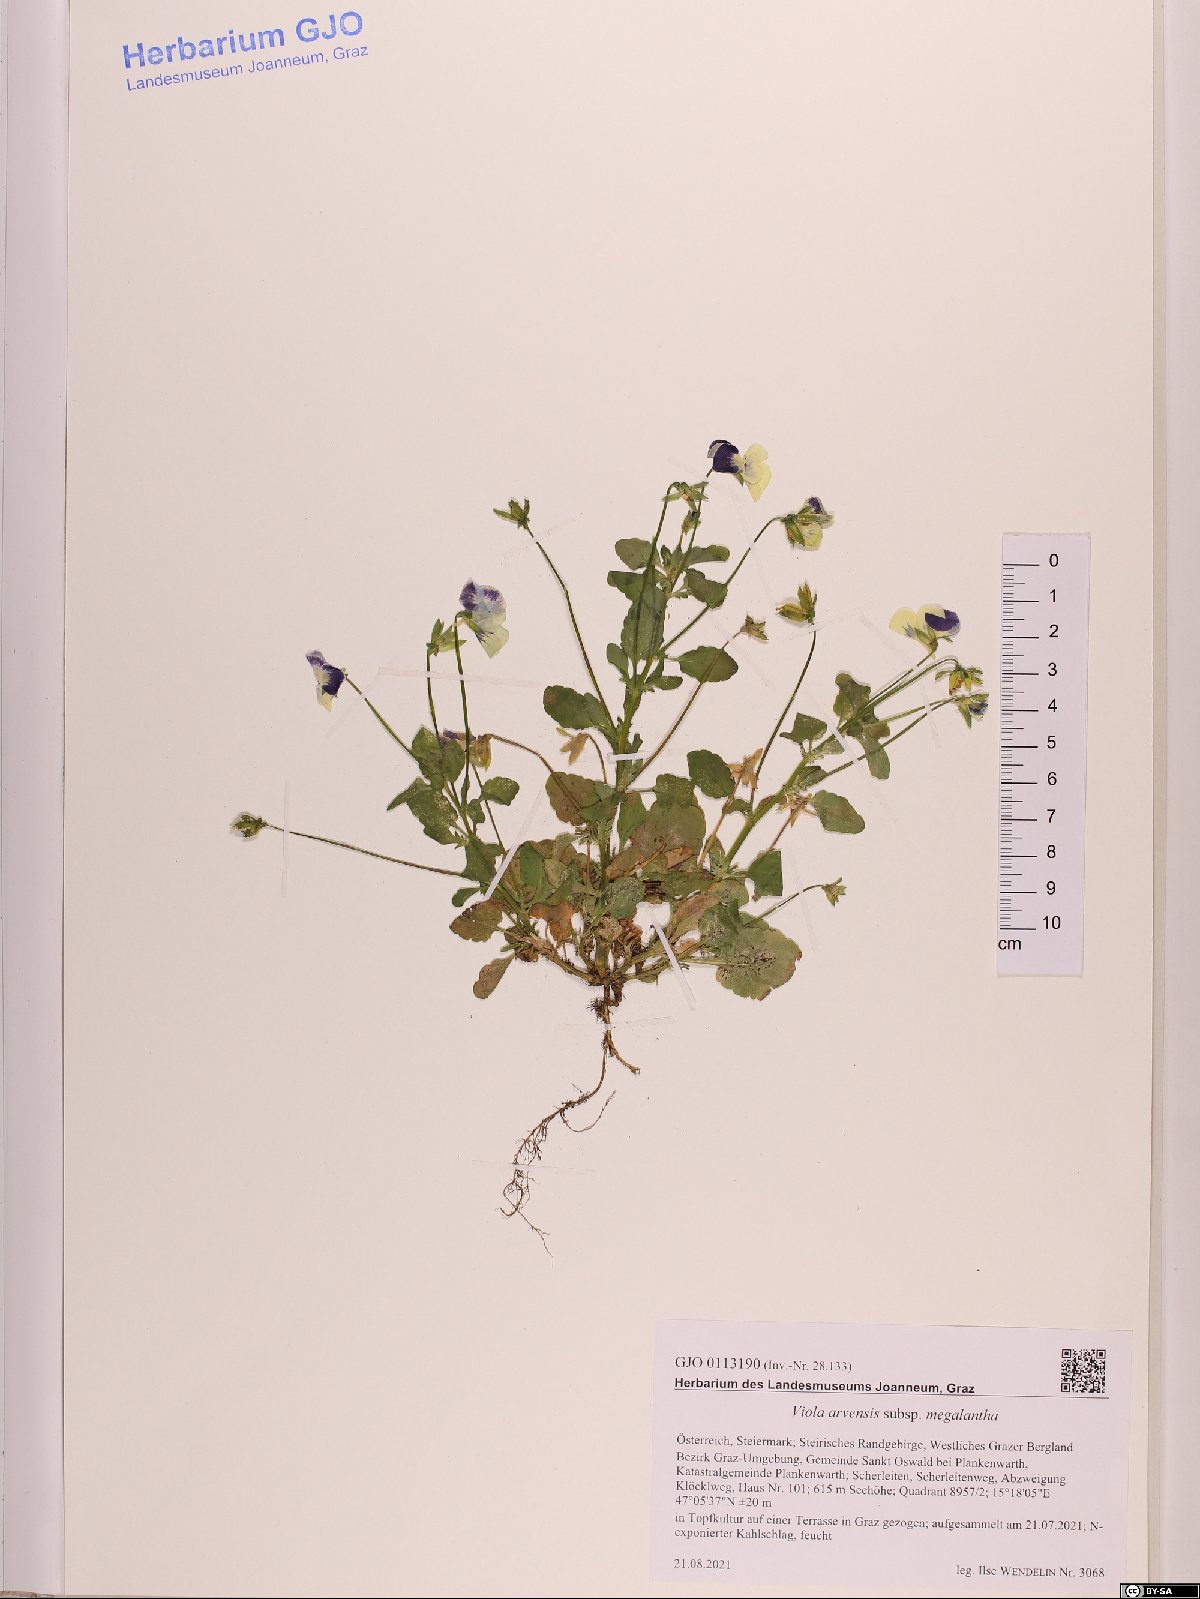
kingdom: Plantae
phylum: Tracheophyta
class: Magnoliopsida
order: Malpighiales
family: Violaceae
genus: Viola
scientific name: Viola arvensis
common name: Field pansy
